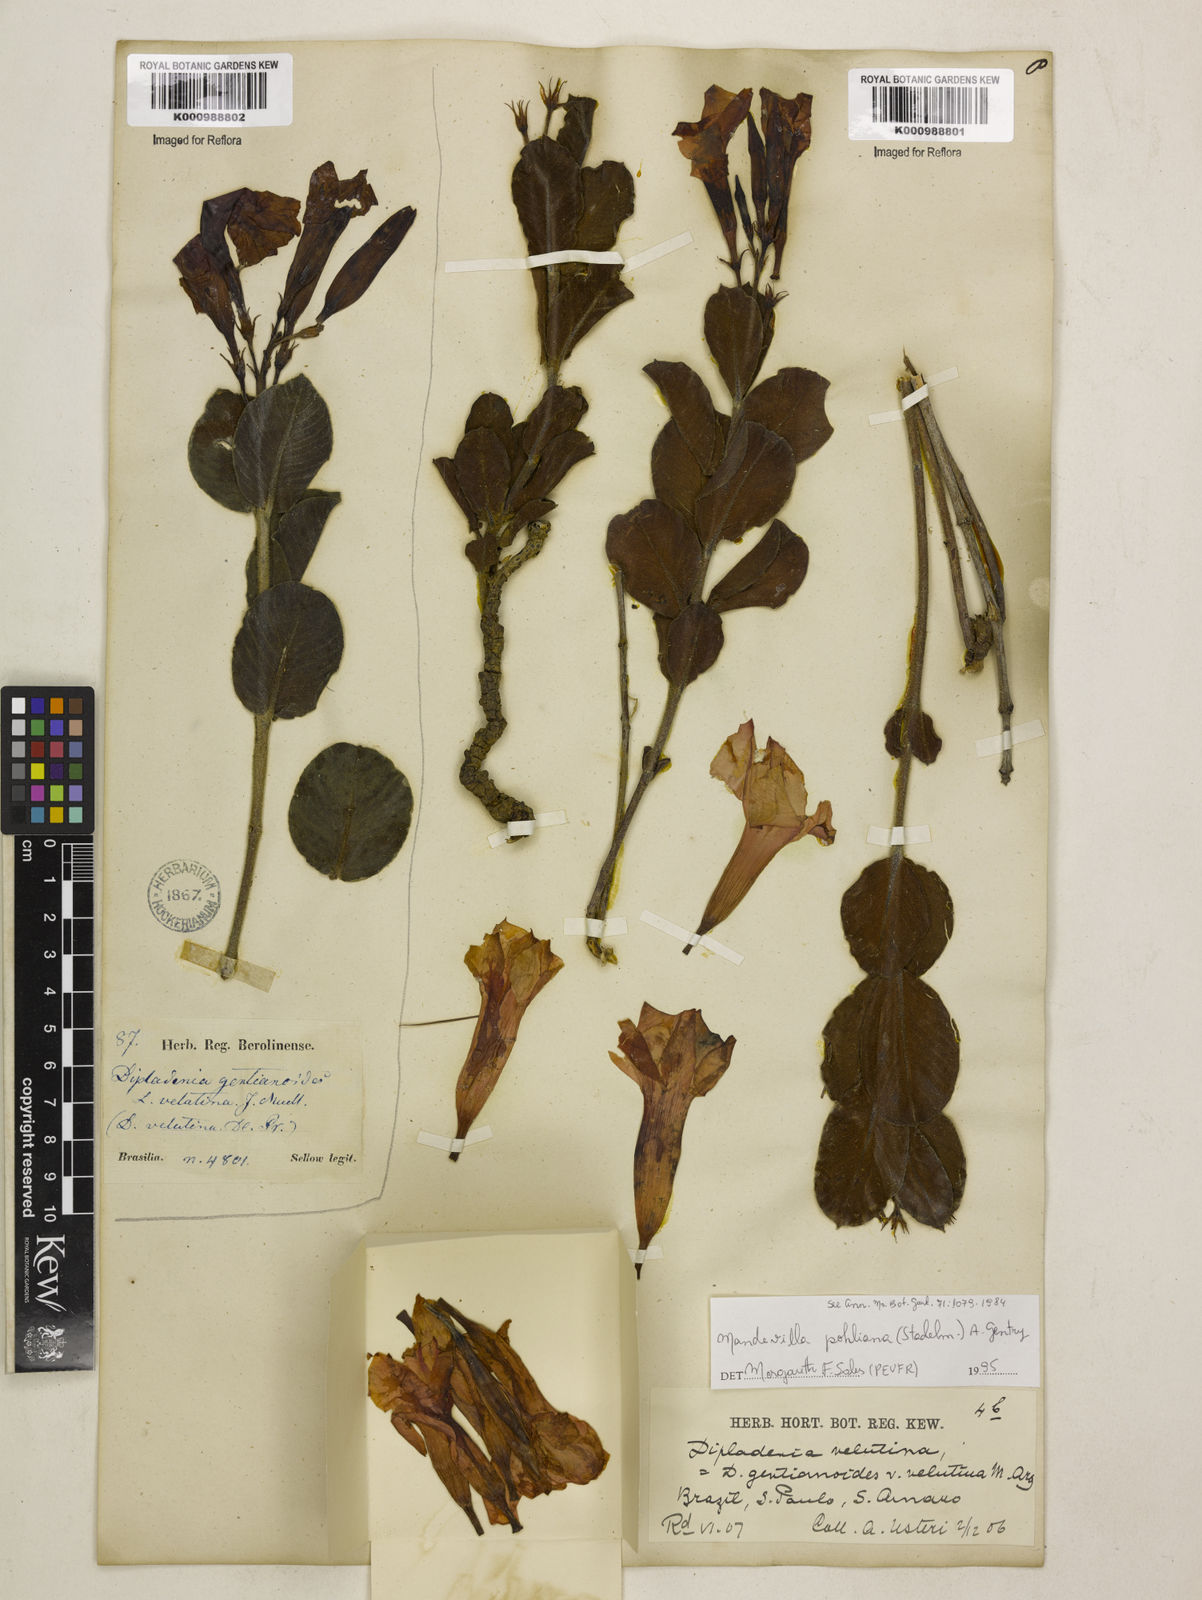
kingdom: Plantae
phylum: Tracheophyta
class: Magnoliopsida
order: Gentianales
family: Apocynaceae
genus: Mandevilla
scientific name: Mandevilla pohliana
